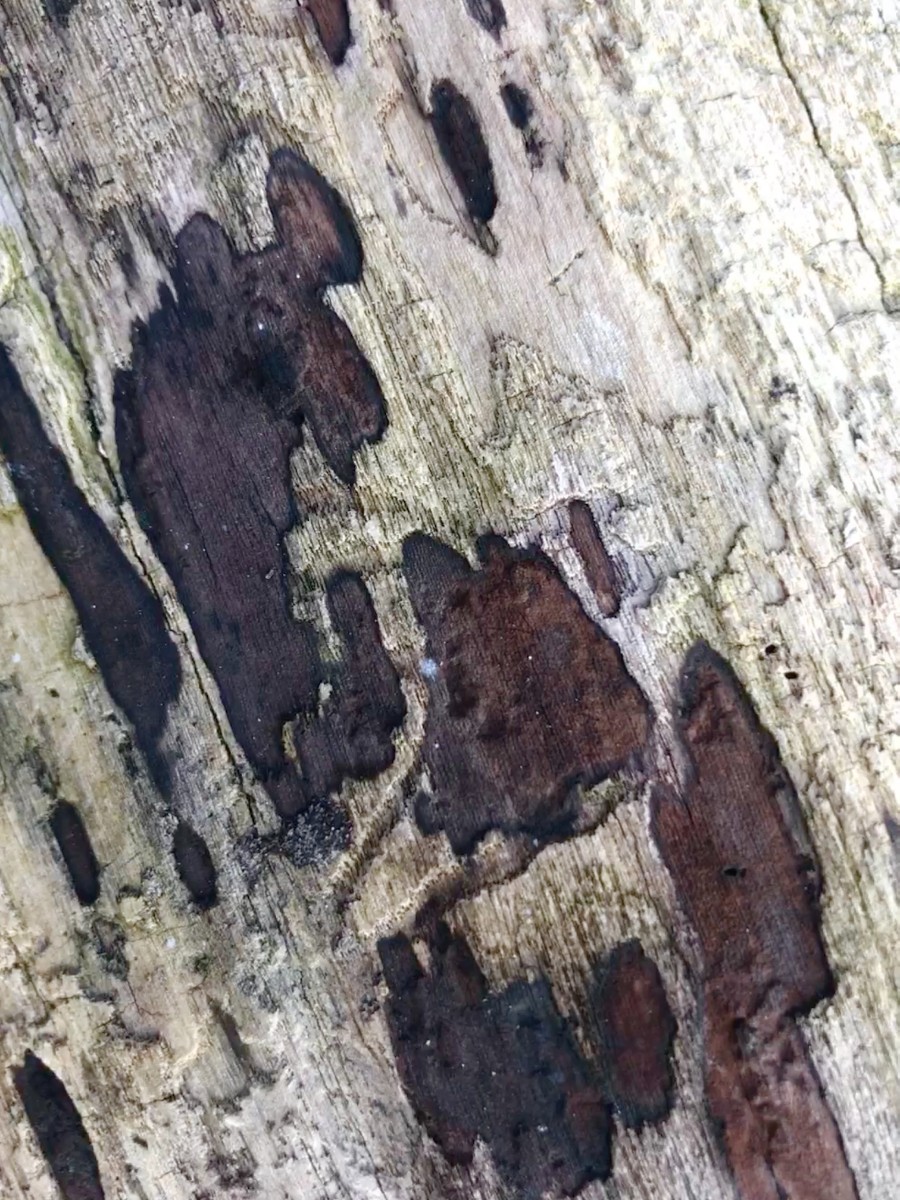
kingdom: Fungi
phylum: Ascomycota
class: Sordariomycetes
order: Xylariales
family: Hypoxylaceae
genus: Hypoxylon
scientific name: Hypoxylon petriniae
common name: nedsænket kulbær
